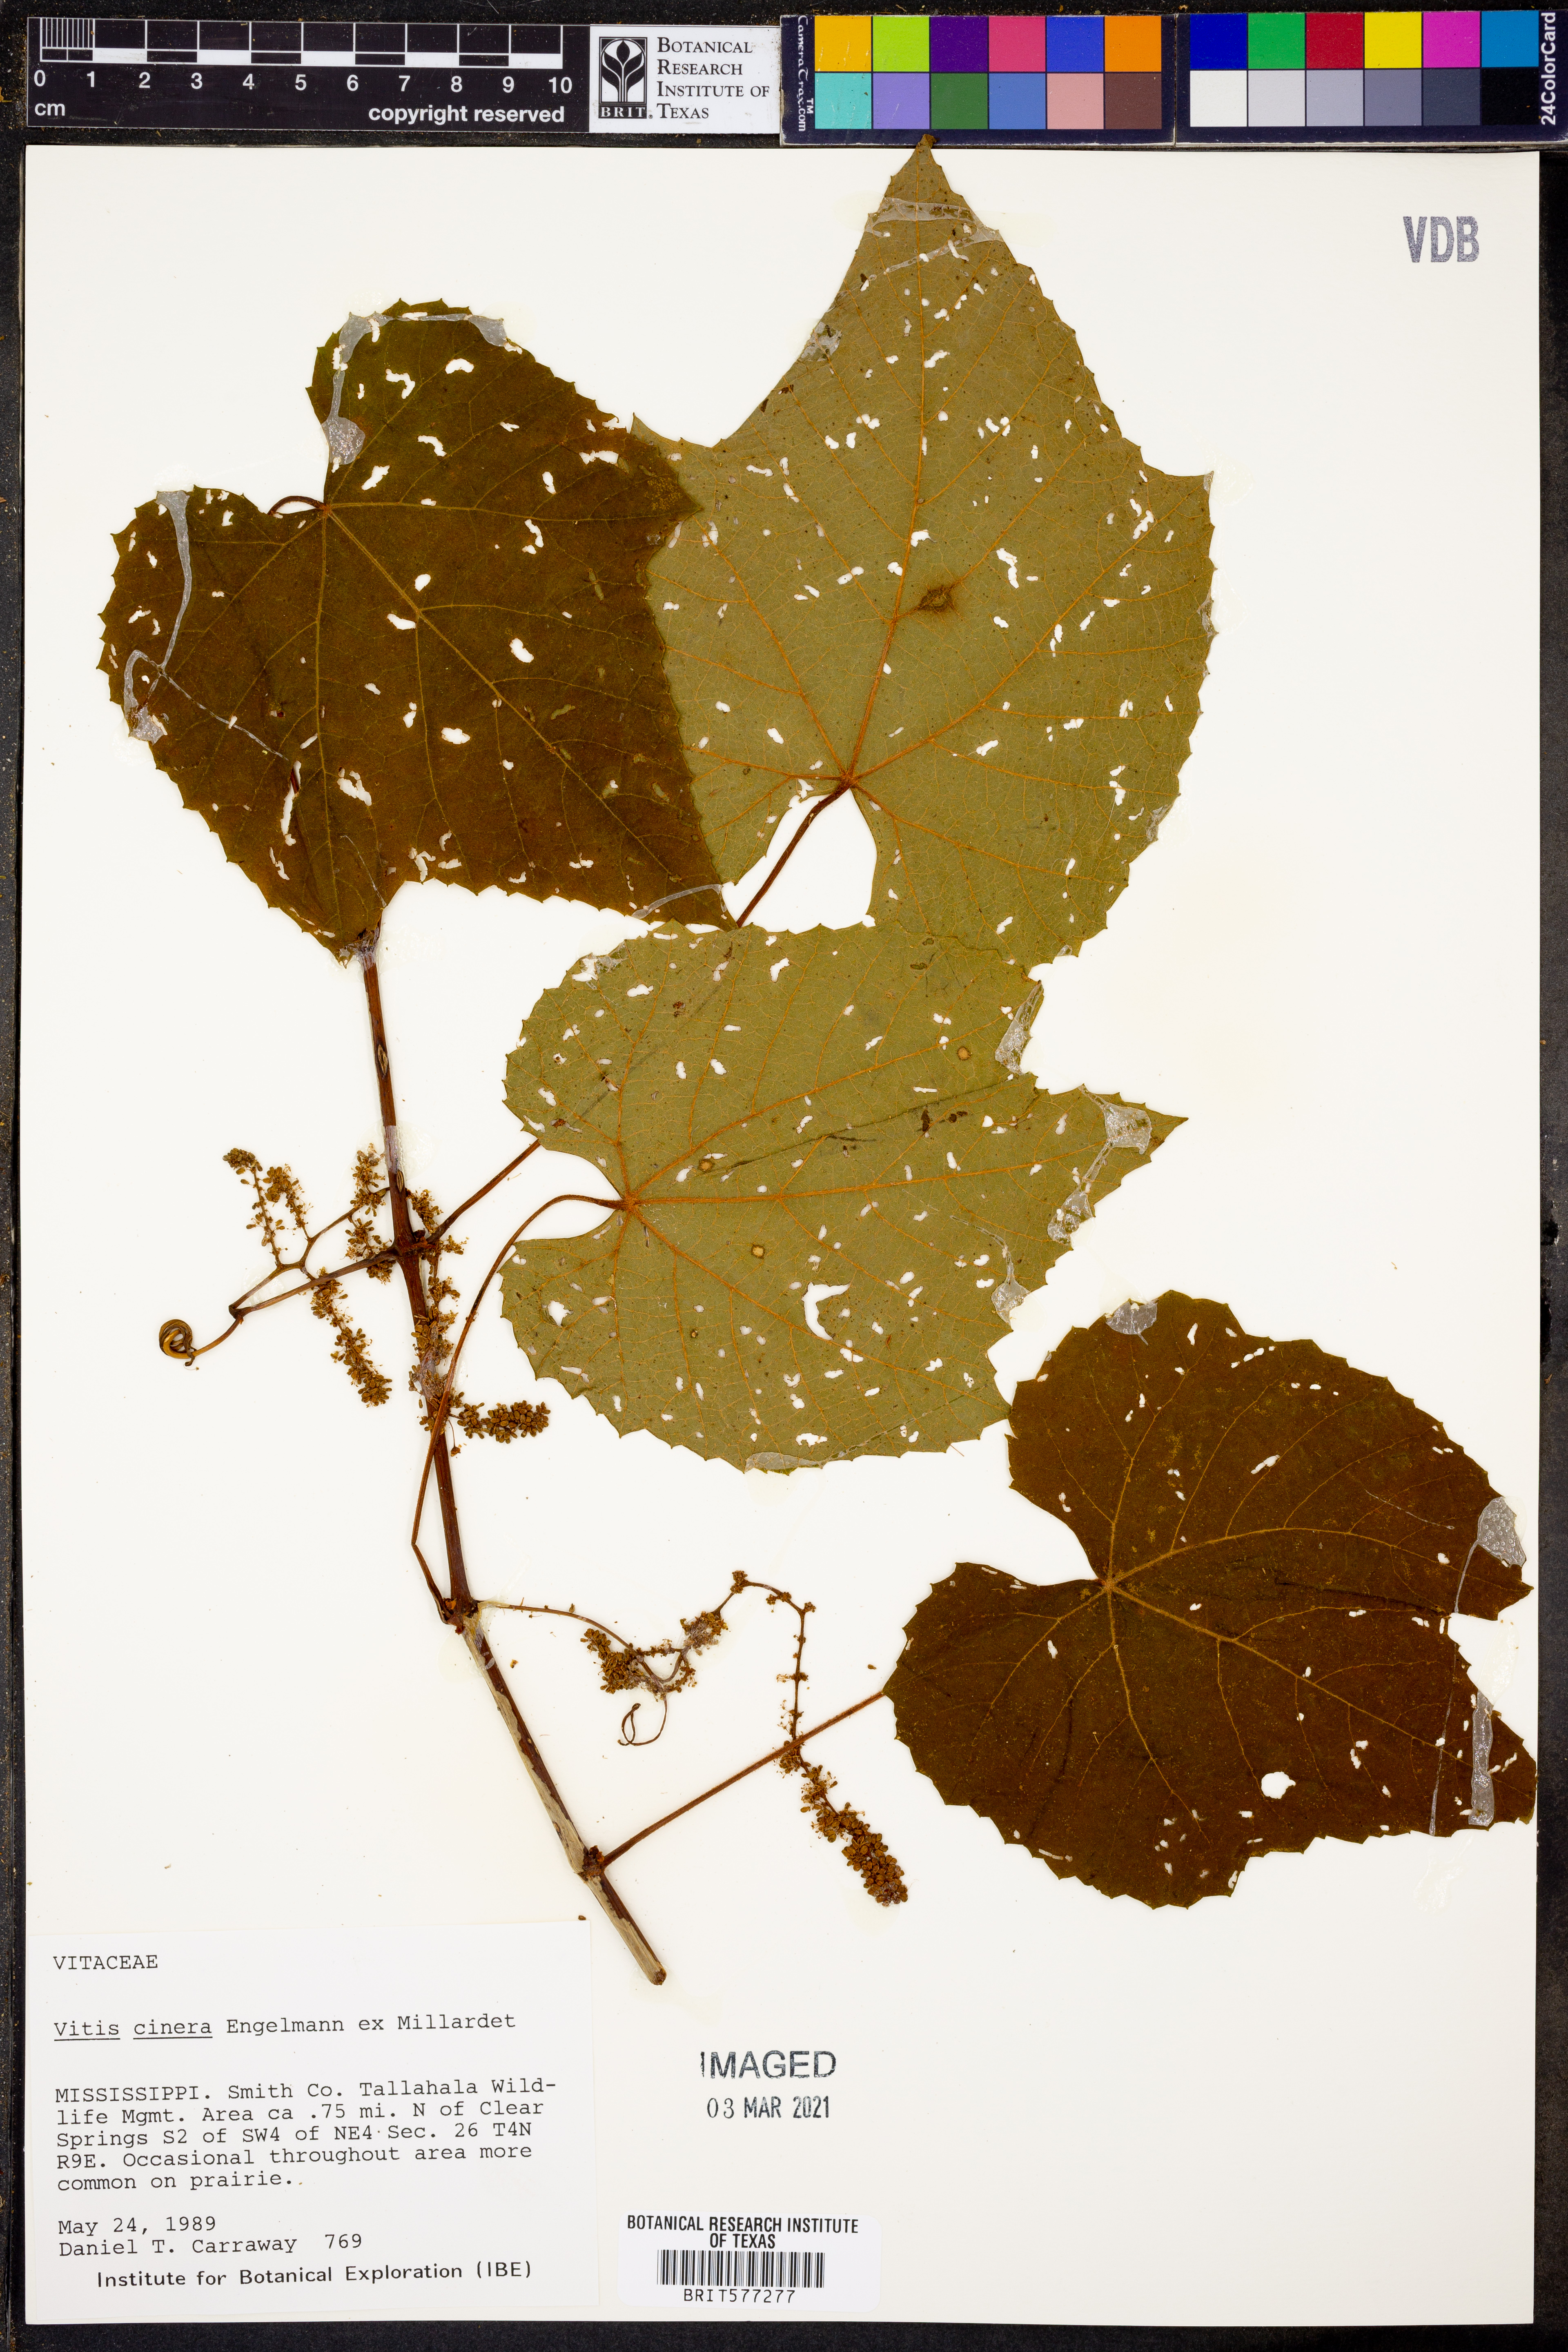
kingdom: Plantae
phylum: Tracheophyta
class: Magnoliopsida
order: Vitales
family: Vitaceae
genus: Vitis
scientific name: Vitis cinerea
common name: Ashy grape
